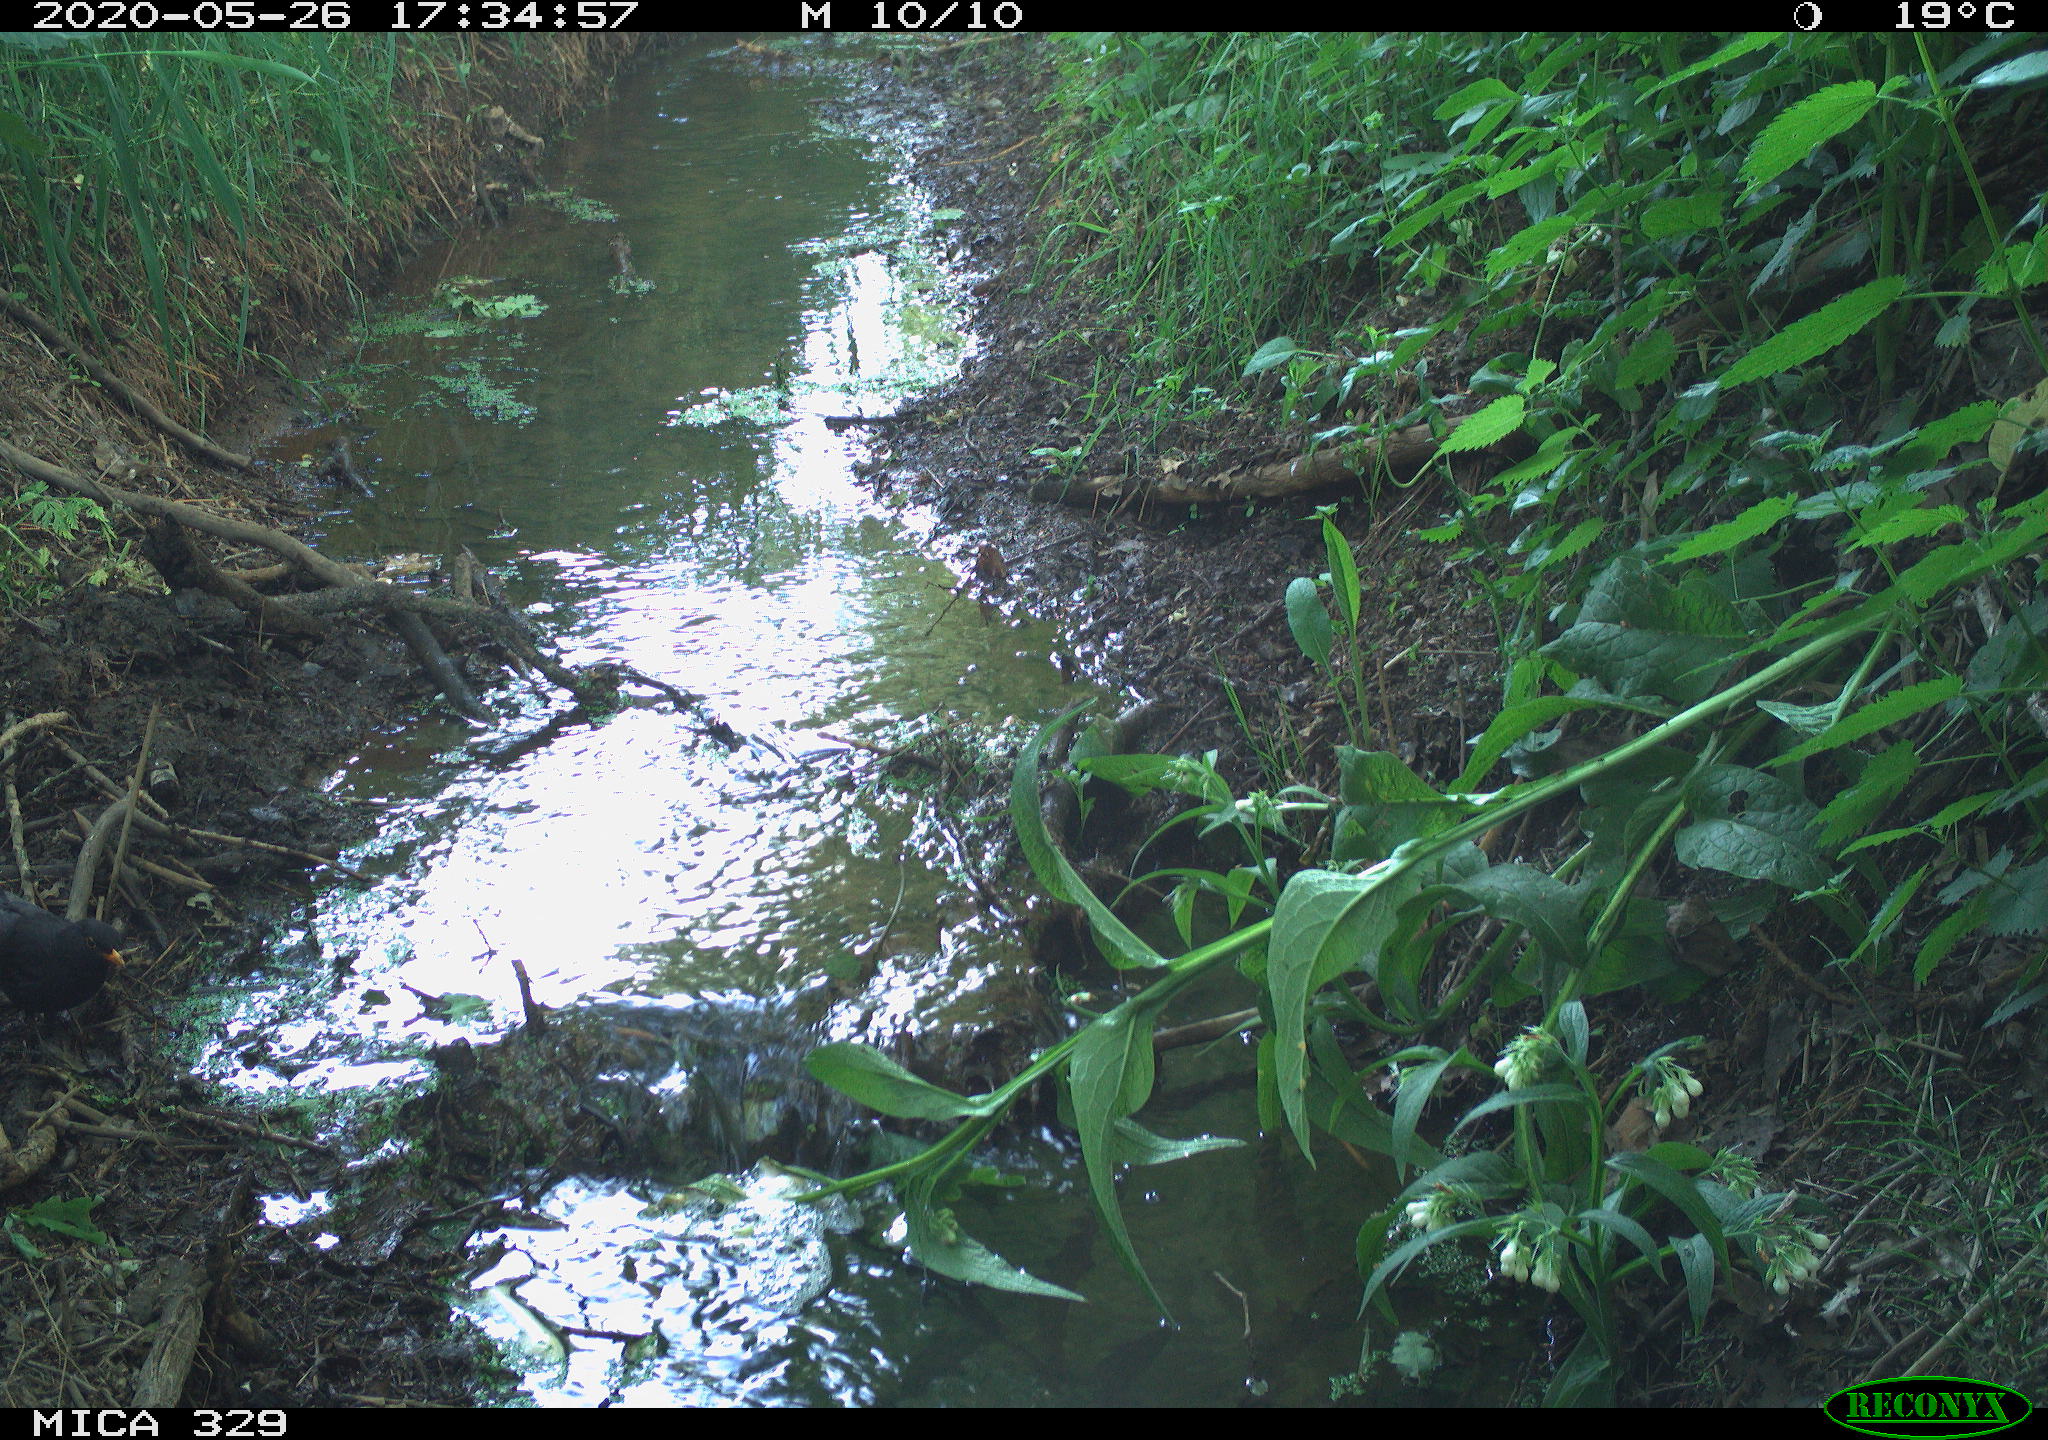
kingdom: Animalia
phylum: Chordata
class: Aves
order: Passeriformes
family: Turdidae
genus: Turdus
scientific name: Turdus merula
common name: Common blackbird
